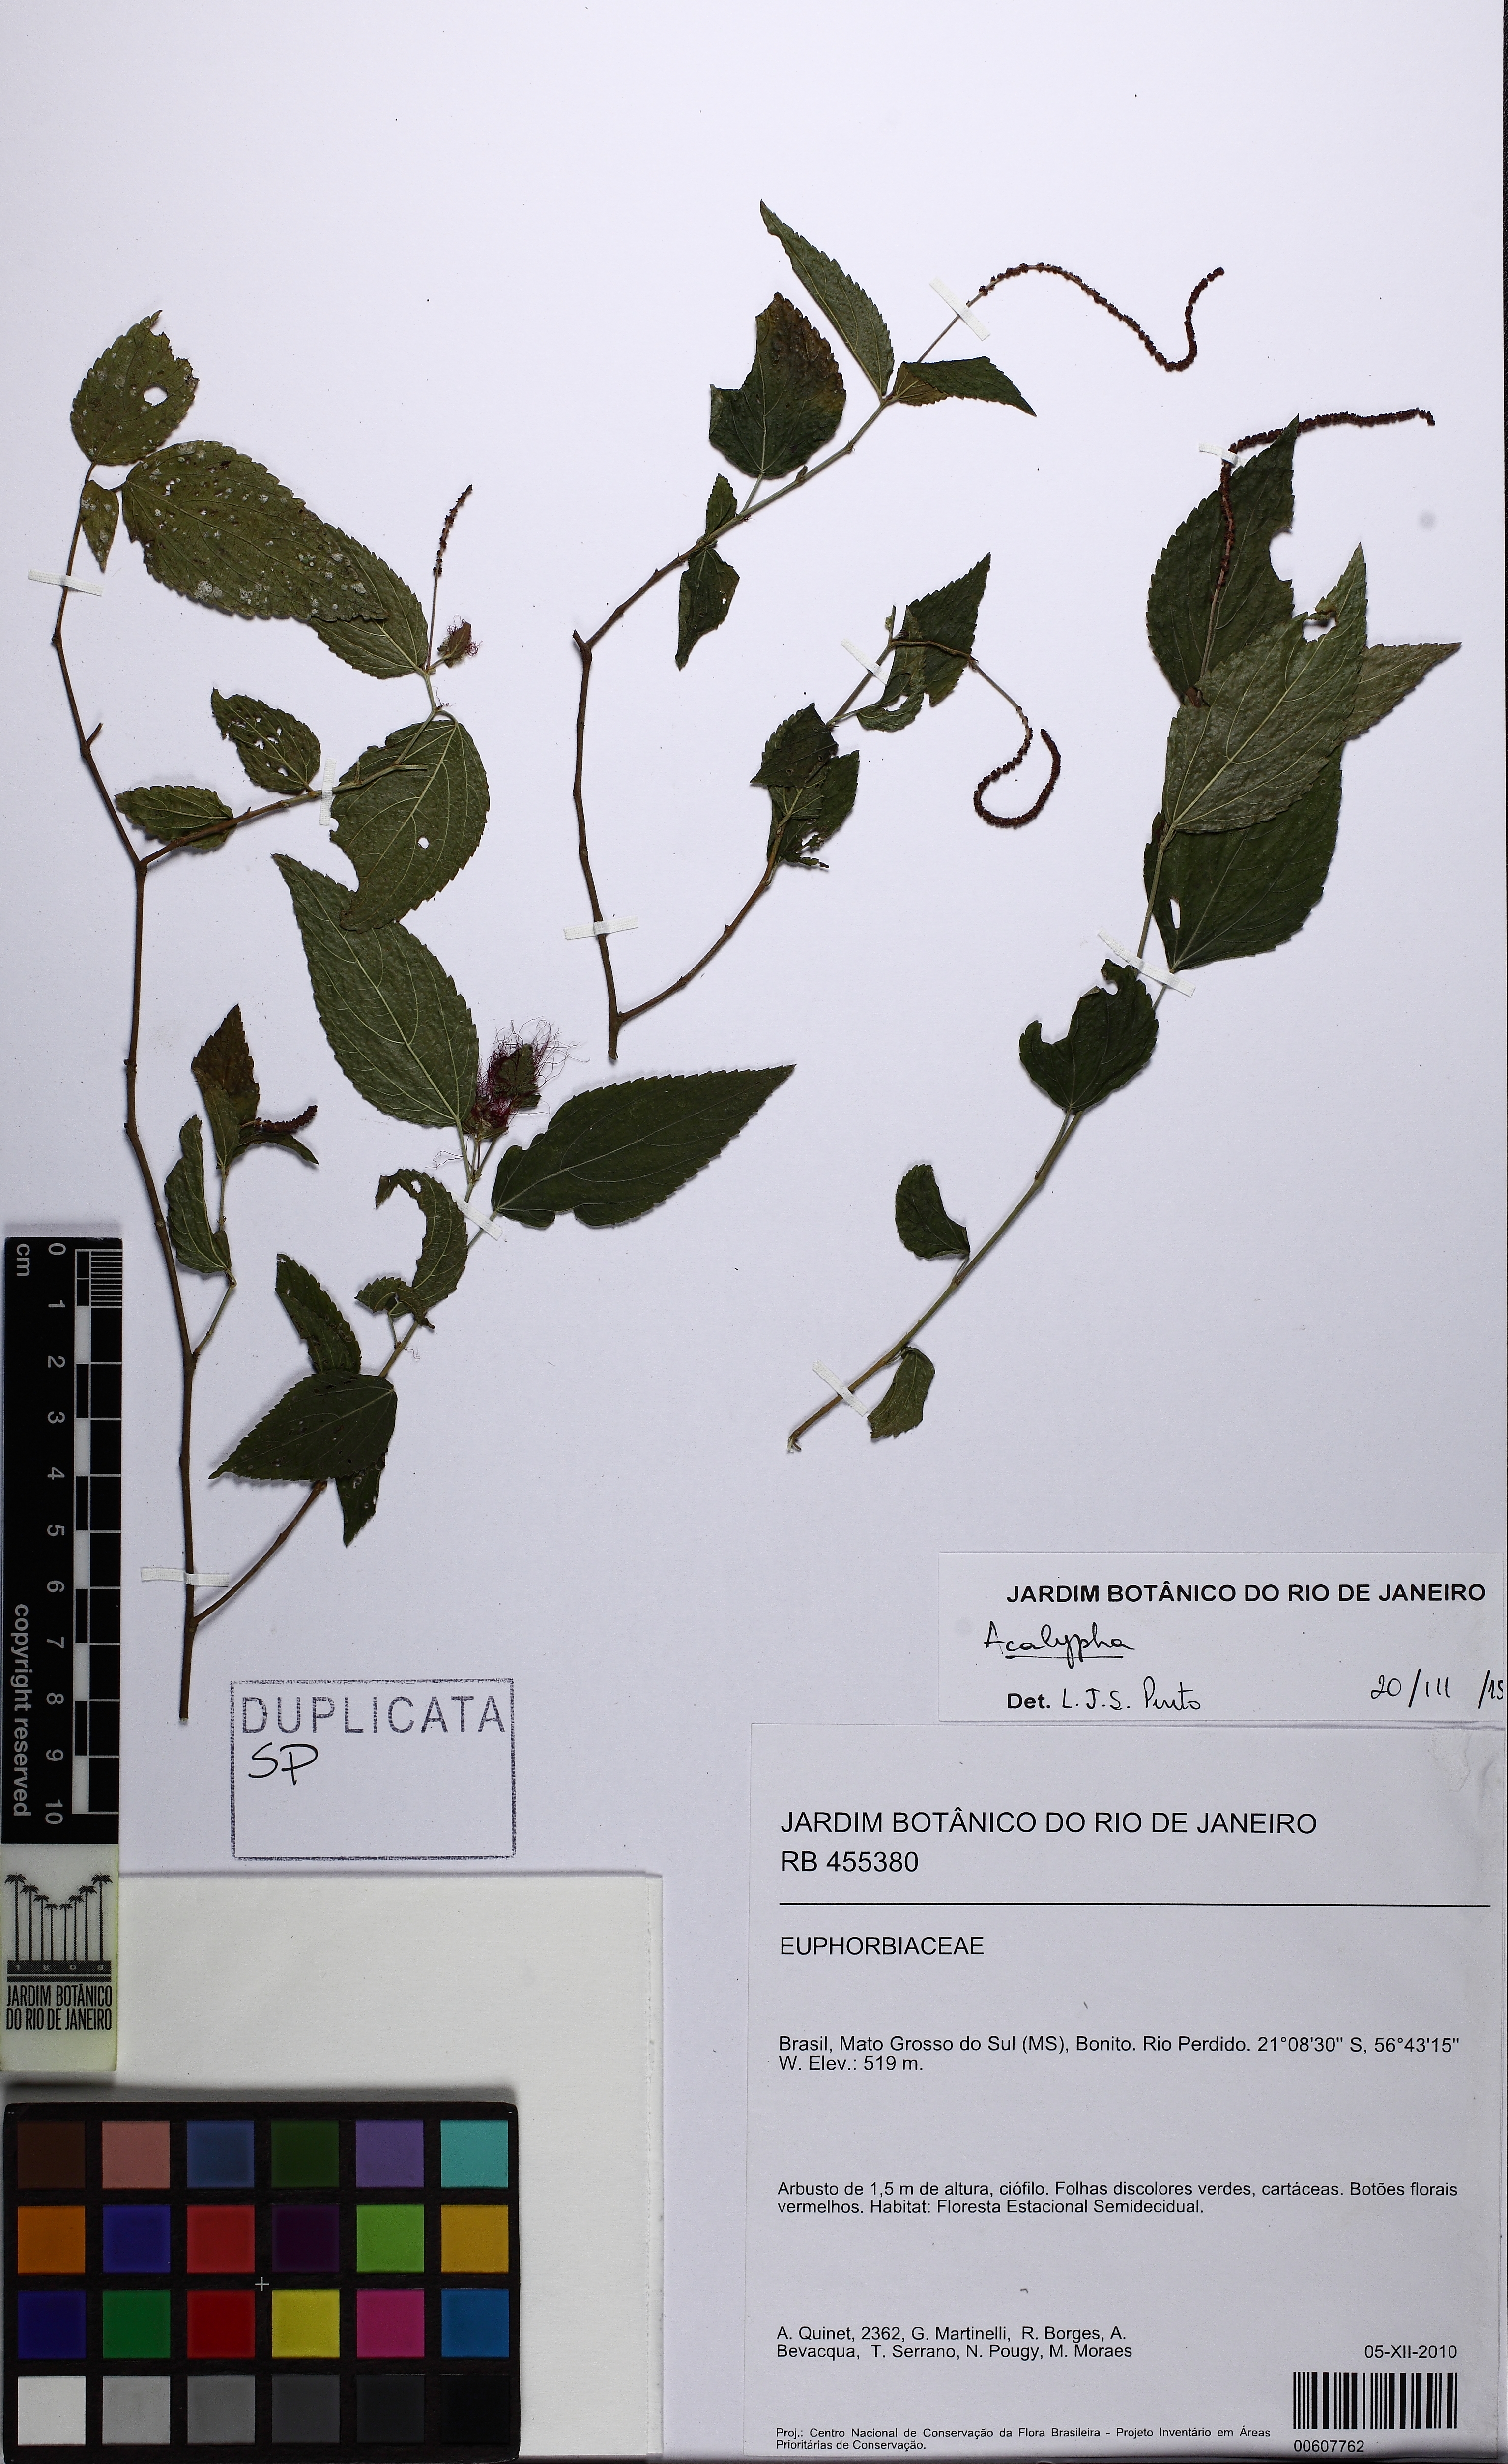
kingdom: Plantae
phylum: Tracheophyta
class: Magnoliopsida
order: Malpighiales
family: Euphorbiaceae
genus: Acalypha
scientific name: Acalypha poiretii
